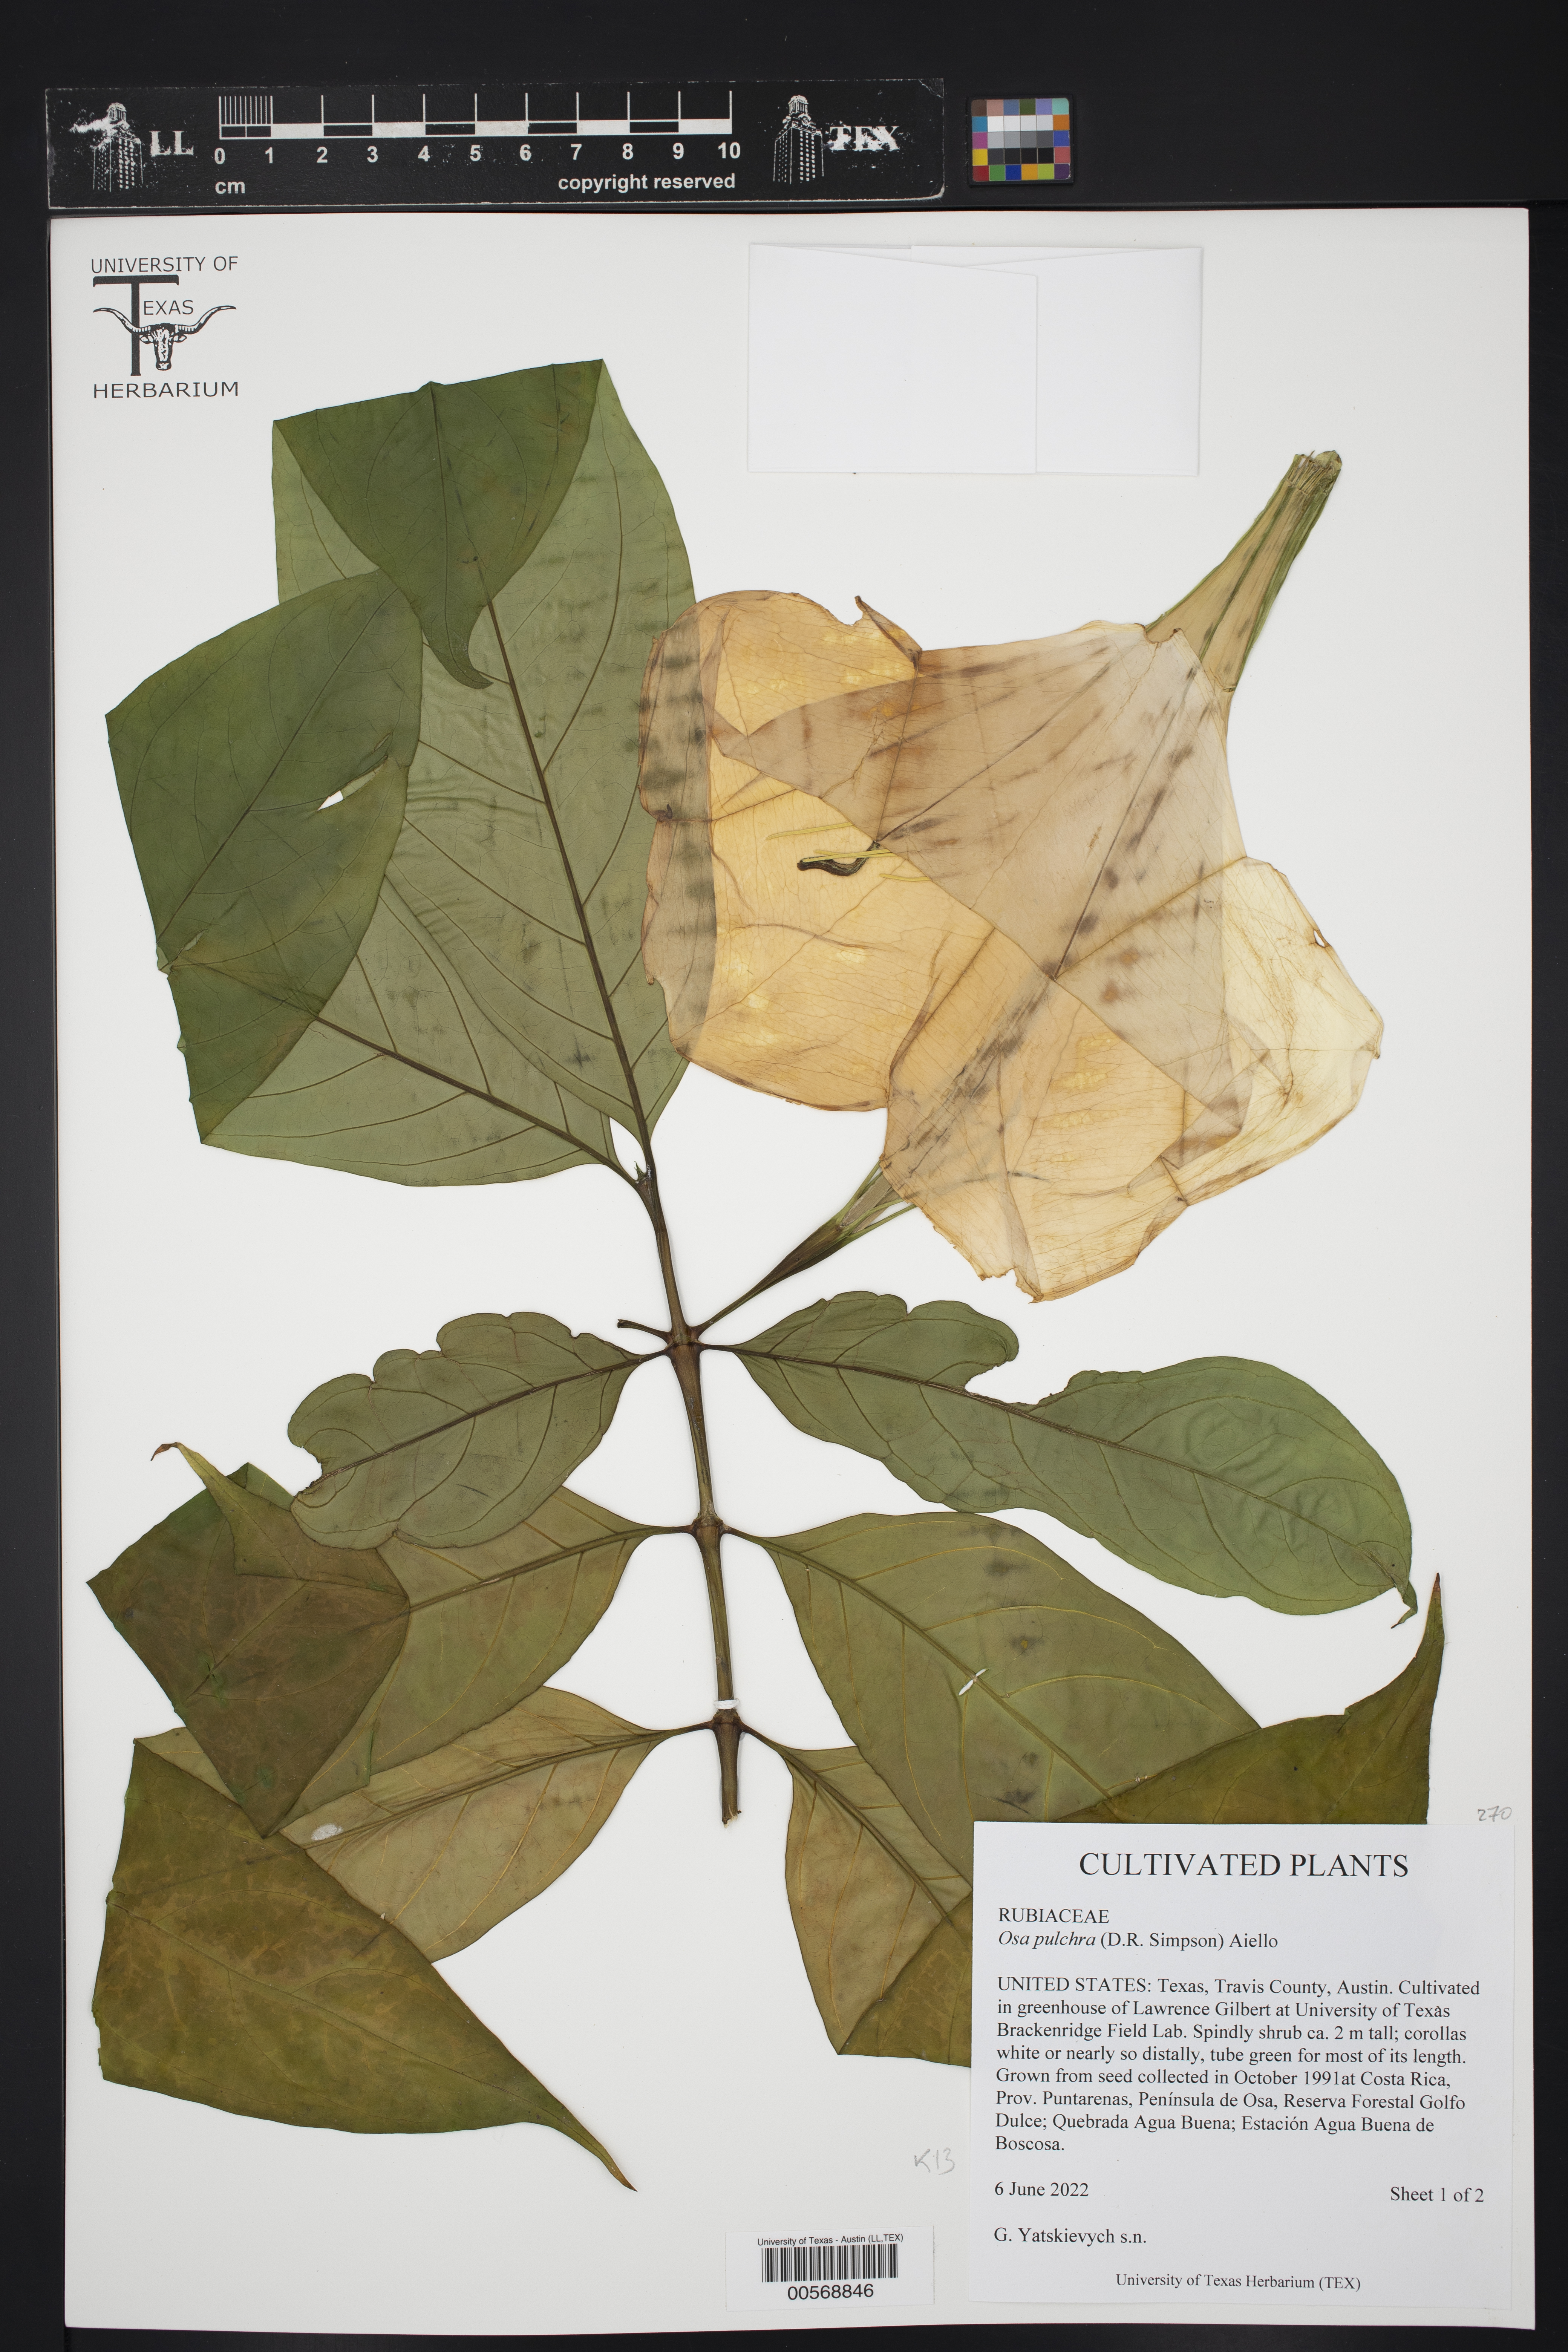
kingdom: Plantae
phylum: Tracheophyta
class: Magnoliopsida
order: Gentianales
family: Rubiaceae
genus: Osa
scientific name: Osa pulchra
